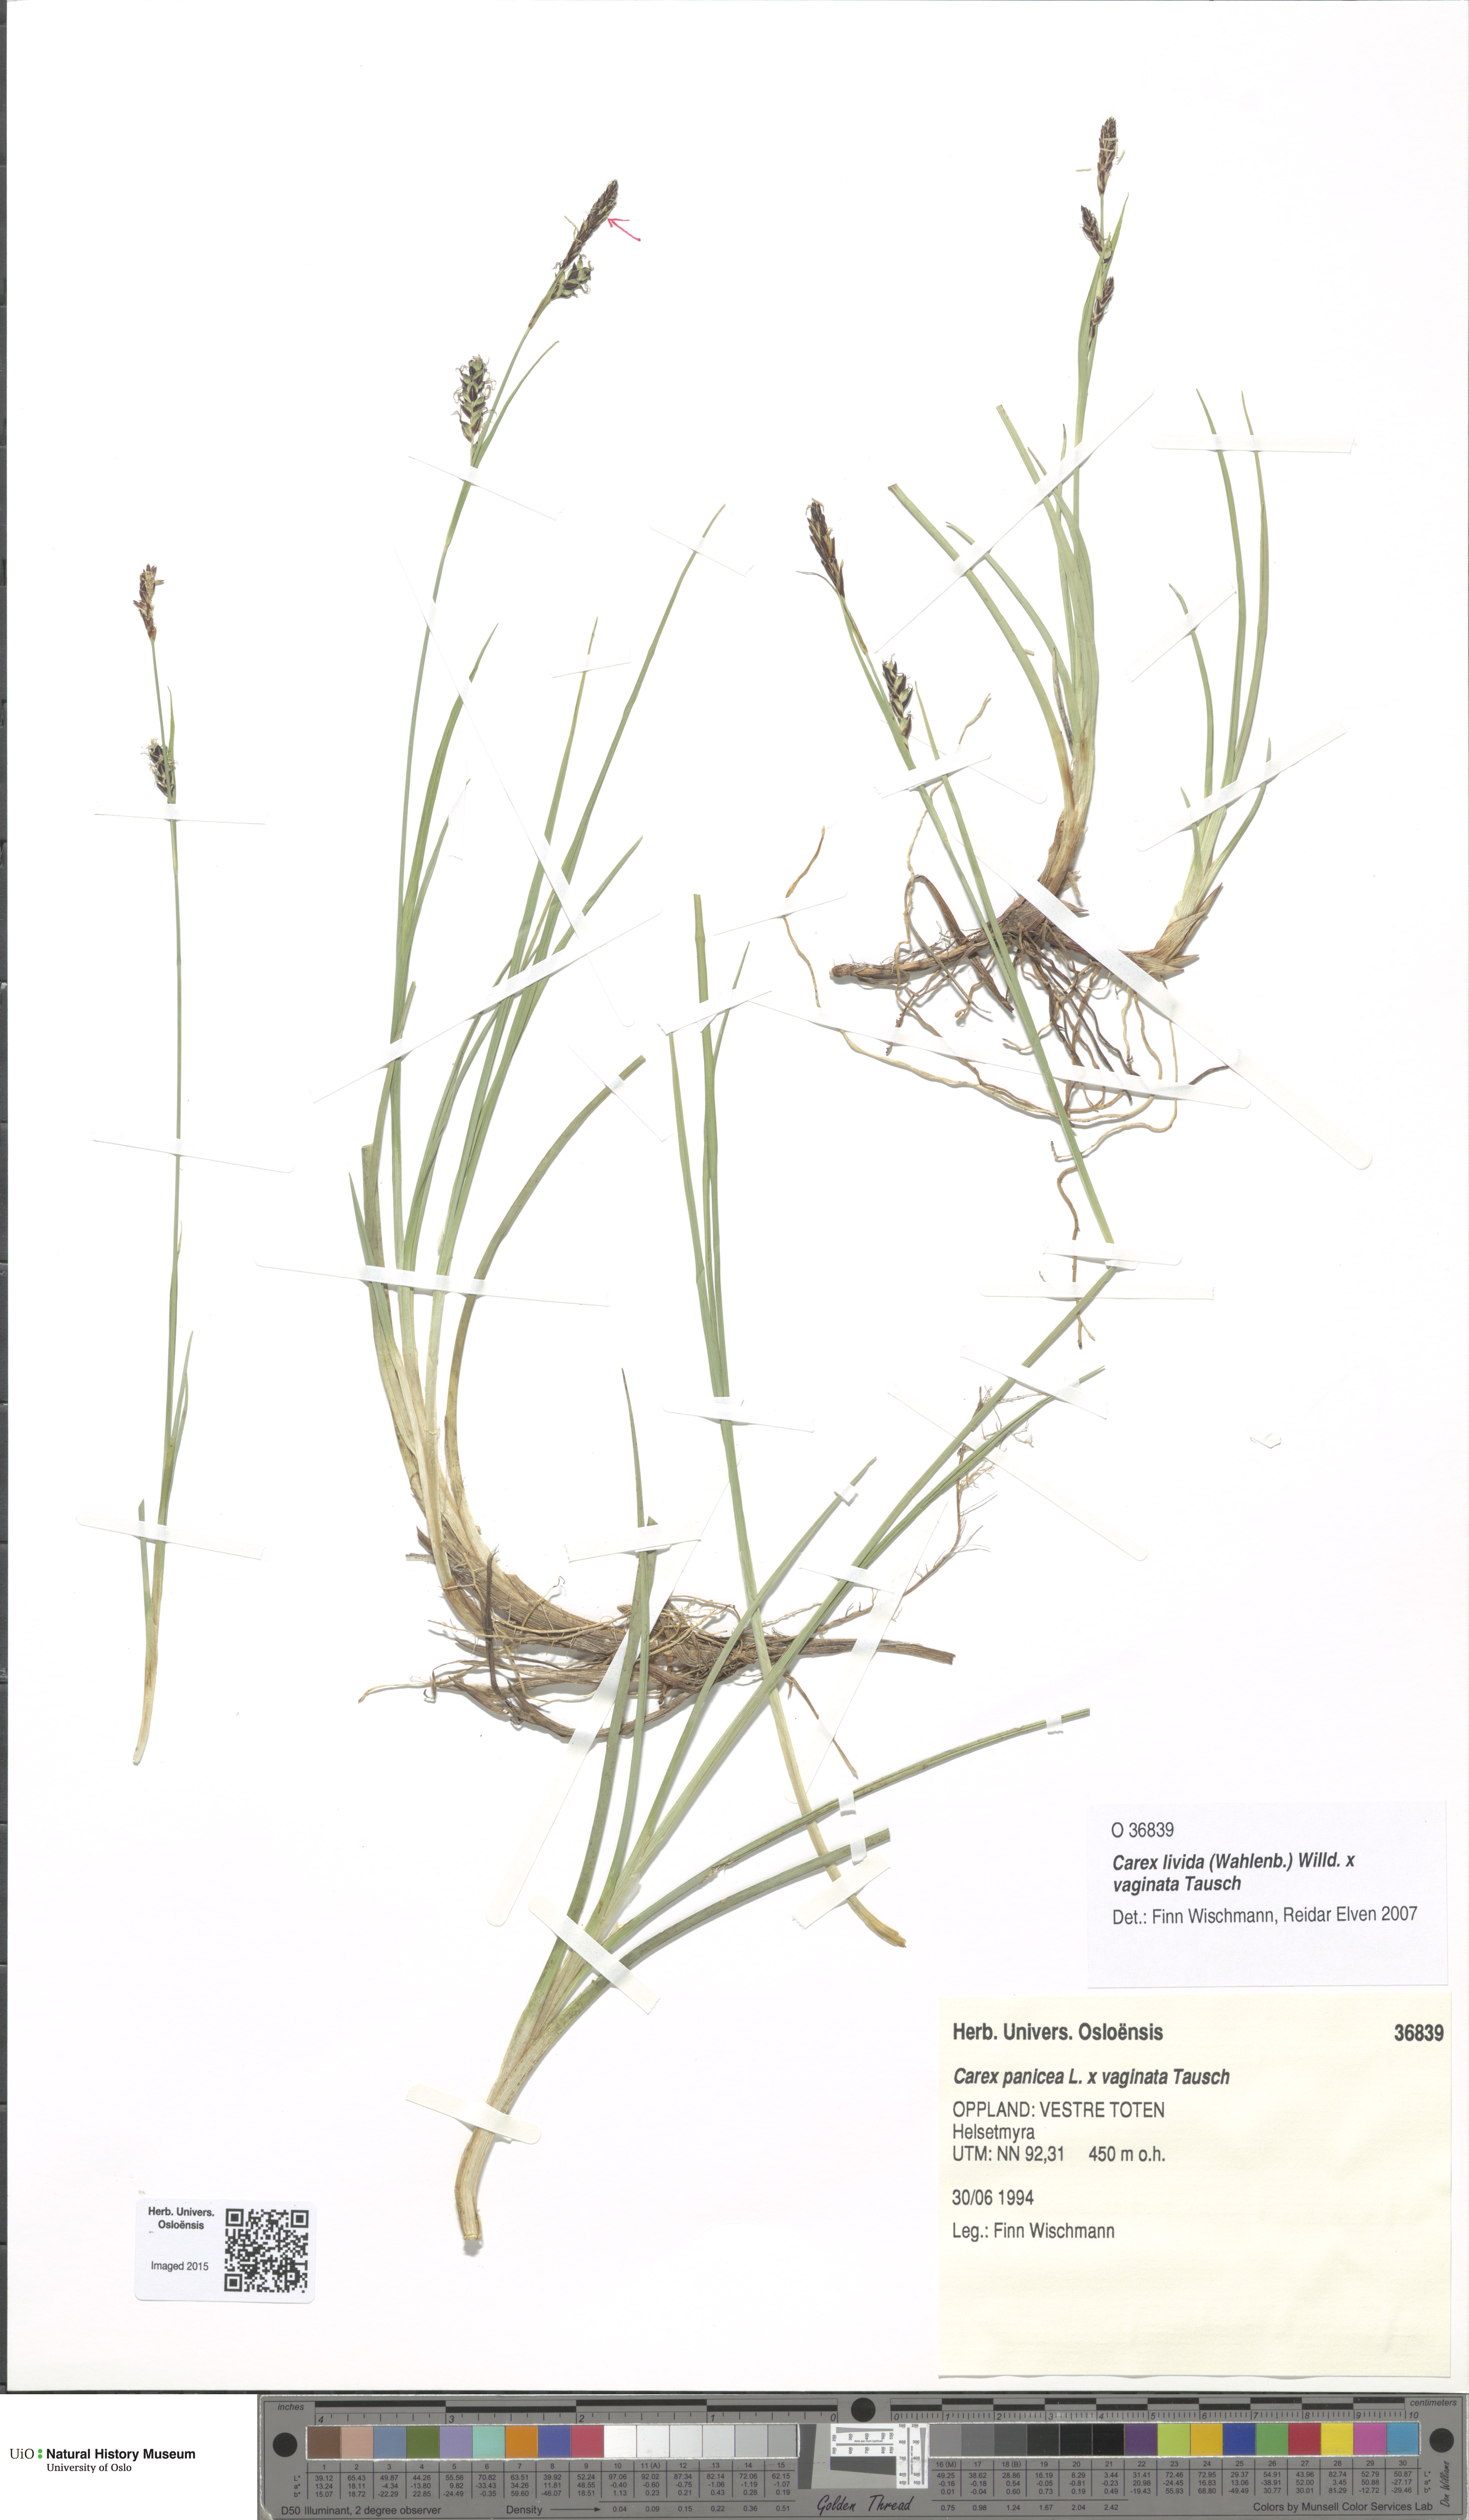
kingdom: Plantae
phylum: Tracheophyta
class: Liliopsida
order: Poales
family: Cyperaceae
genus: Carex
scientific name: Carex
